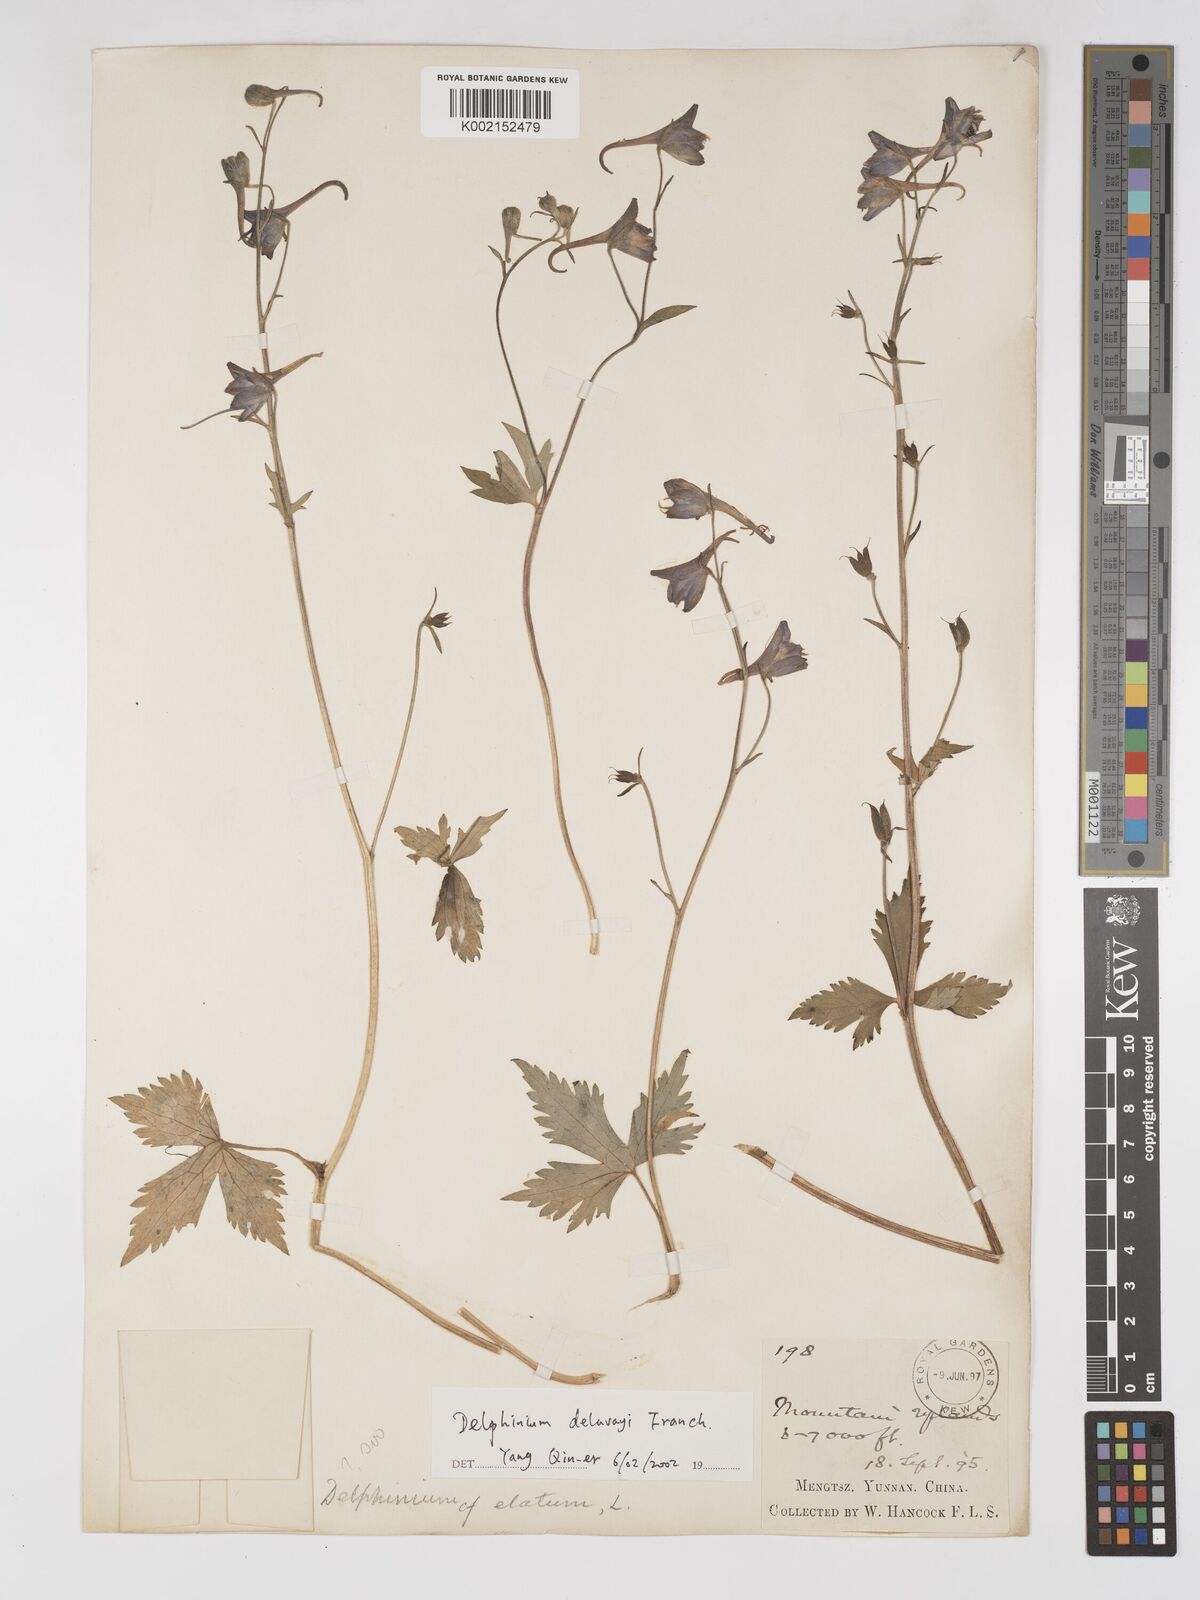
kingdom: Plantae
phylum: Tracheophyta
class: Magnoliopsida
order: Ranunculales
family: Ranunculaceae
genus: Delphinium
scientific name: Delphinium delavayi
